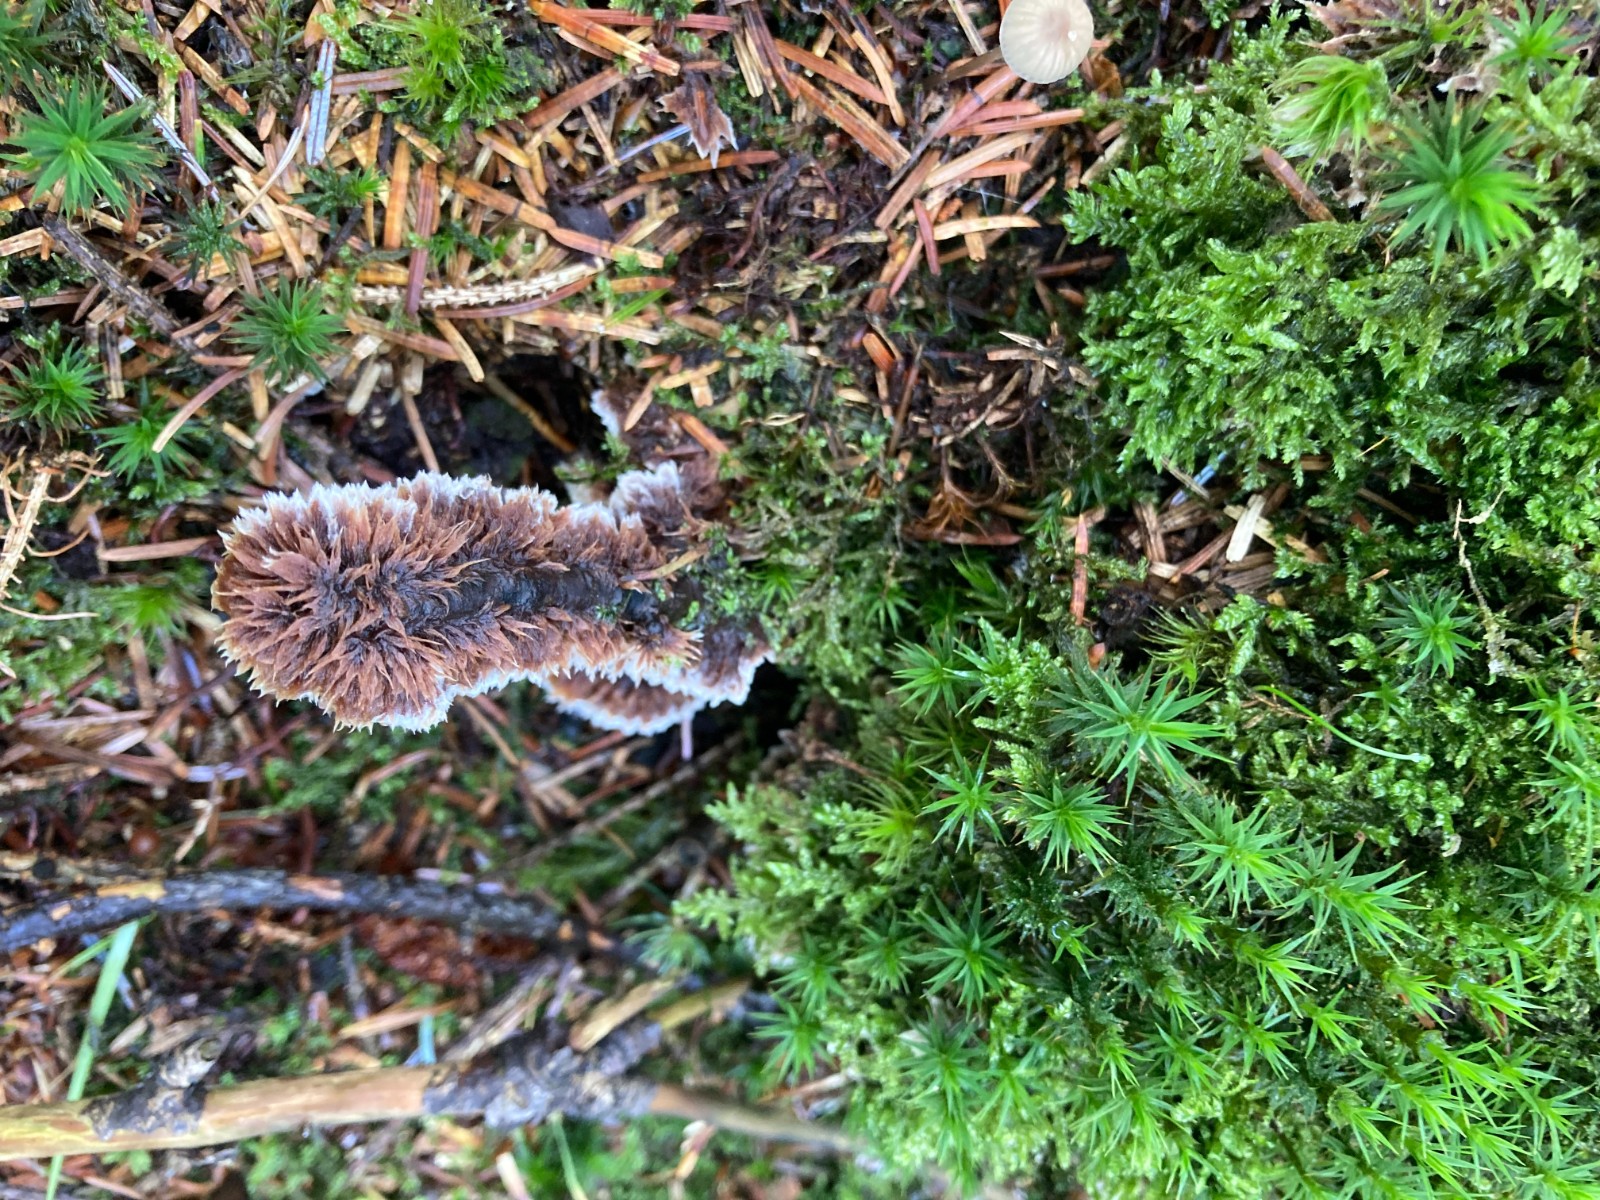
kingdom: Fungi
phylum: Basidiomycota
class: Agaricomycetes
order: Thelephorales
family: Thelephoraceae
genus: Thelephora
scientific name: Thelephora terrestris
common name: fliget frynsesvamp
